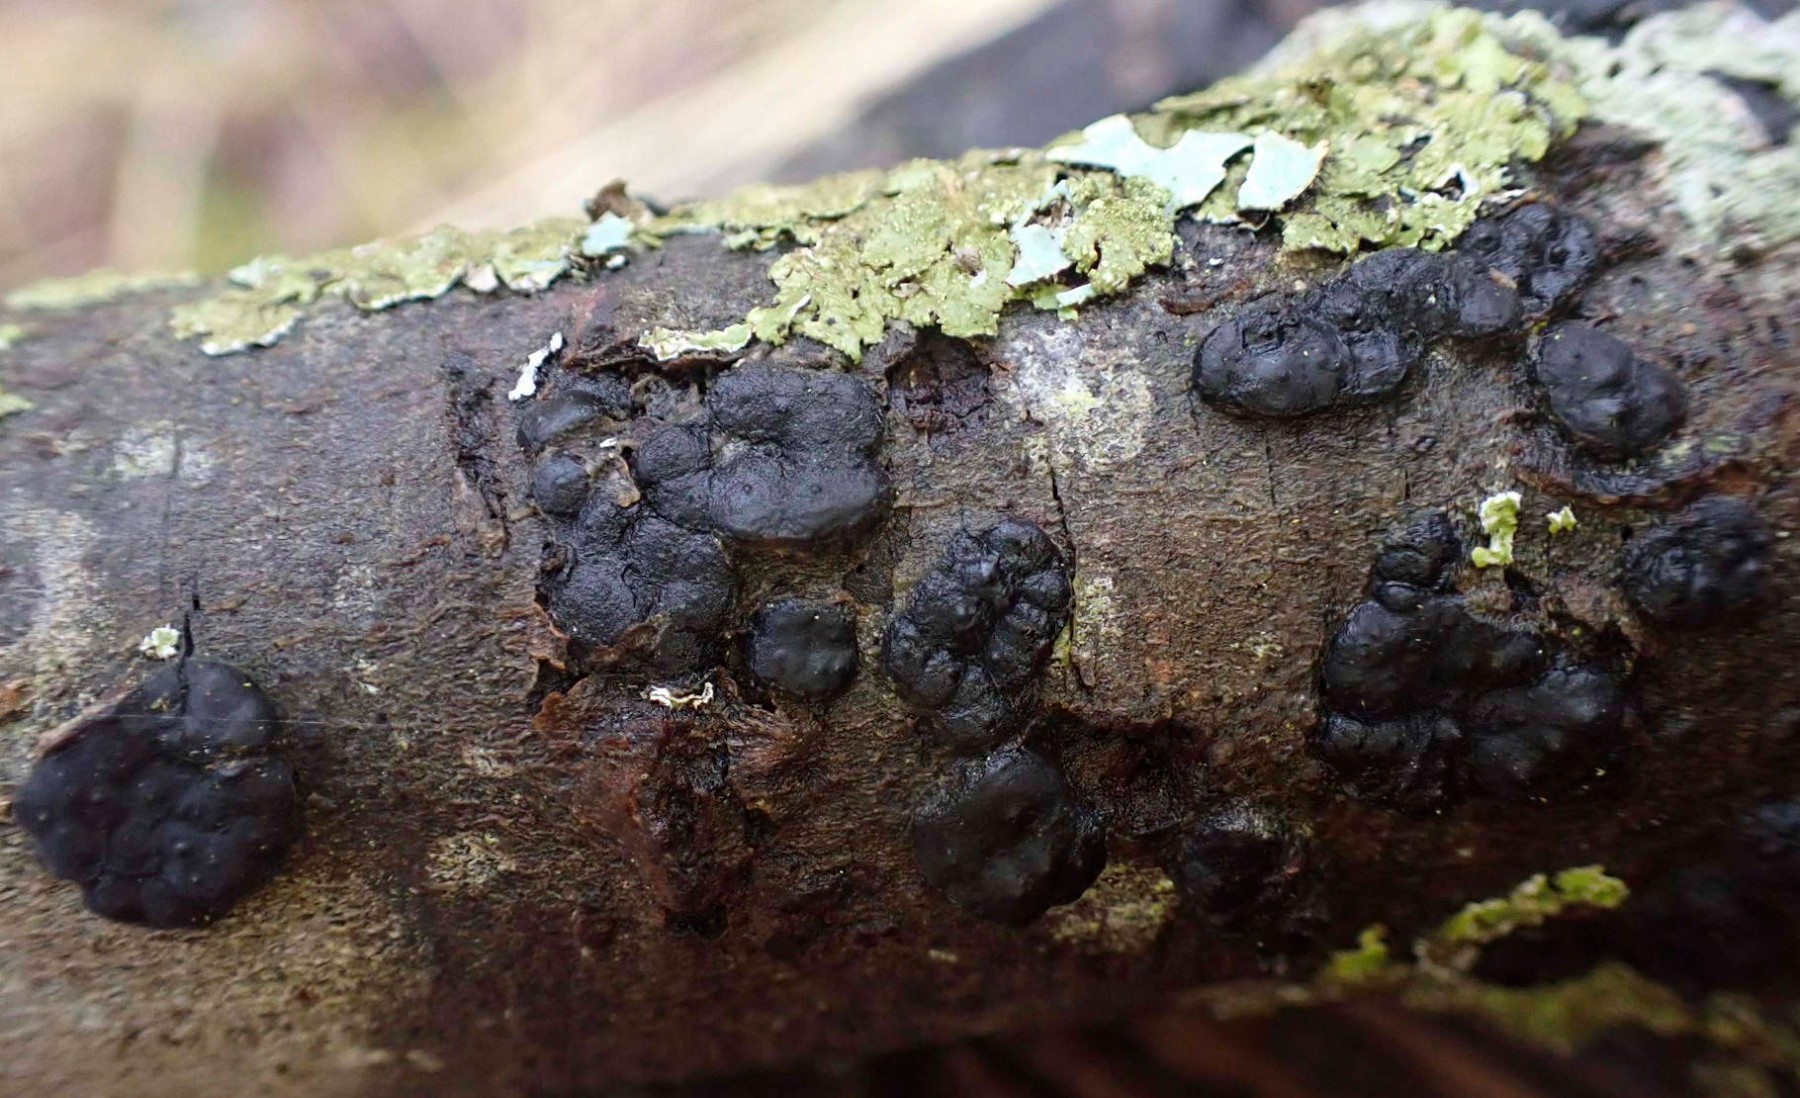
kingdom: Fungi
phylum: Ascomycota
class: Sordariomycetes
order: Xylariales
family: Xylariaceae
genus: Entoleuca
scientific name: Entoleuca mammata
